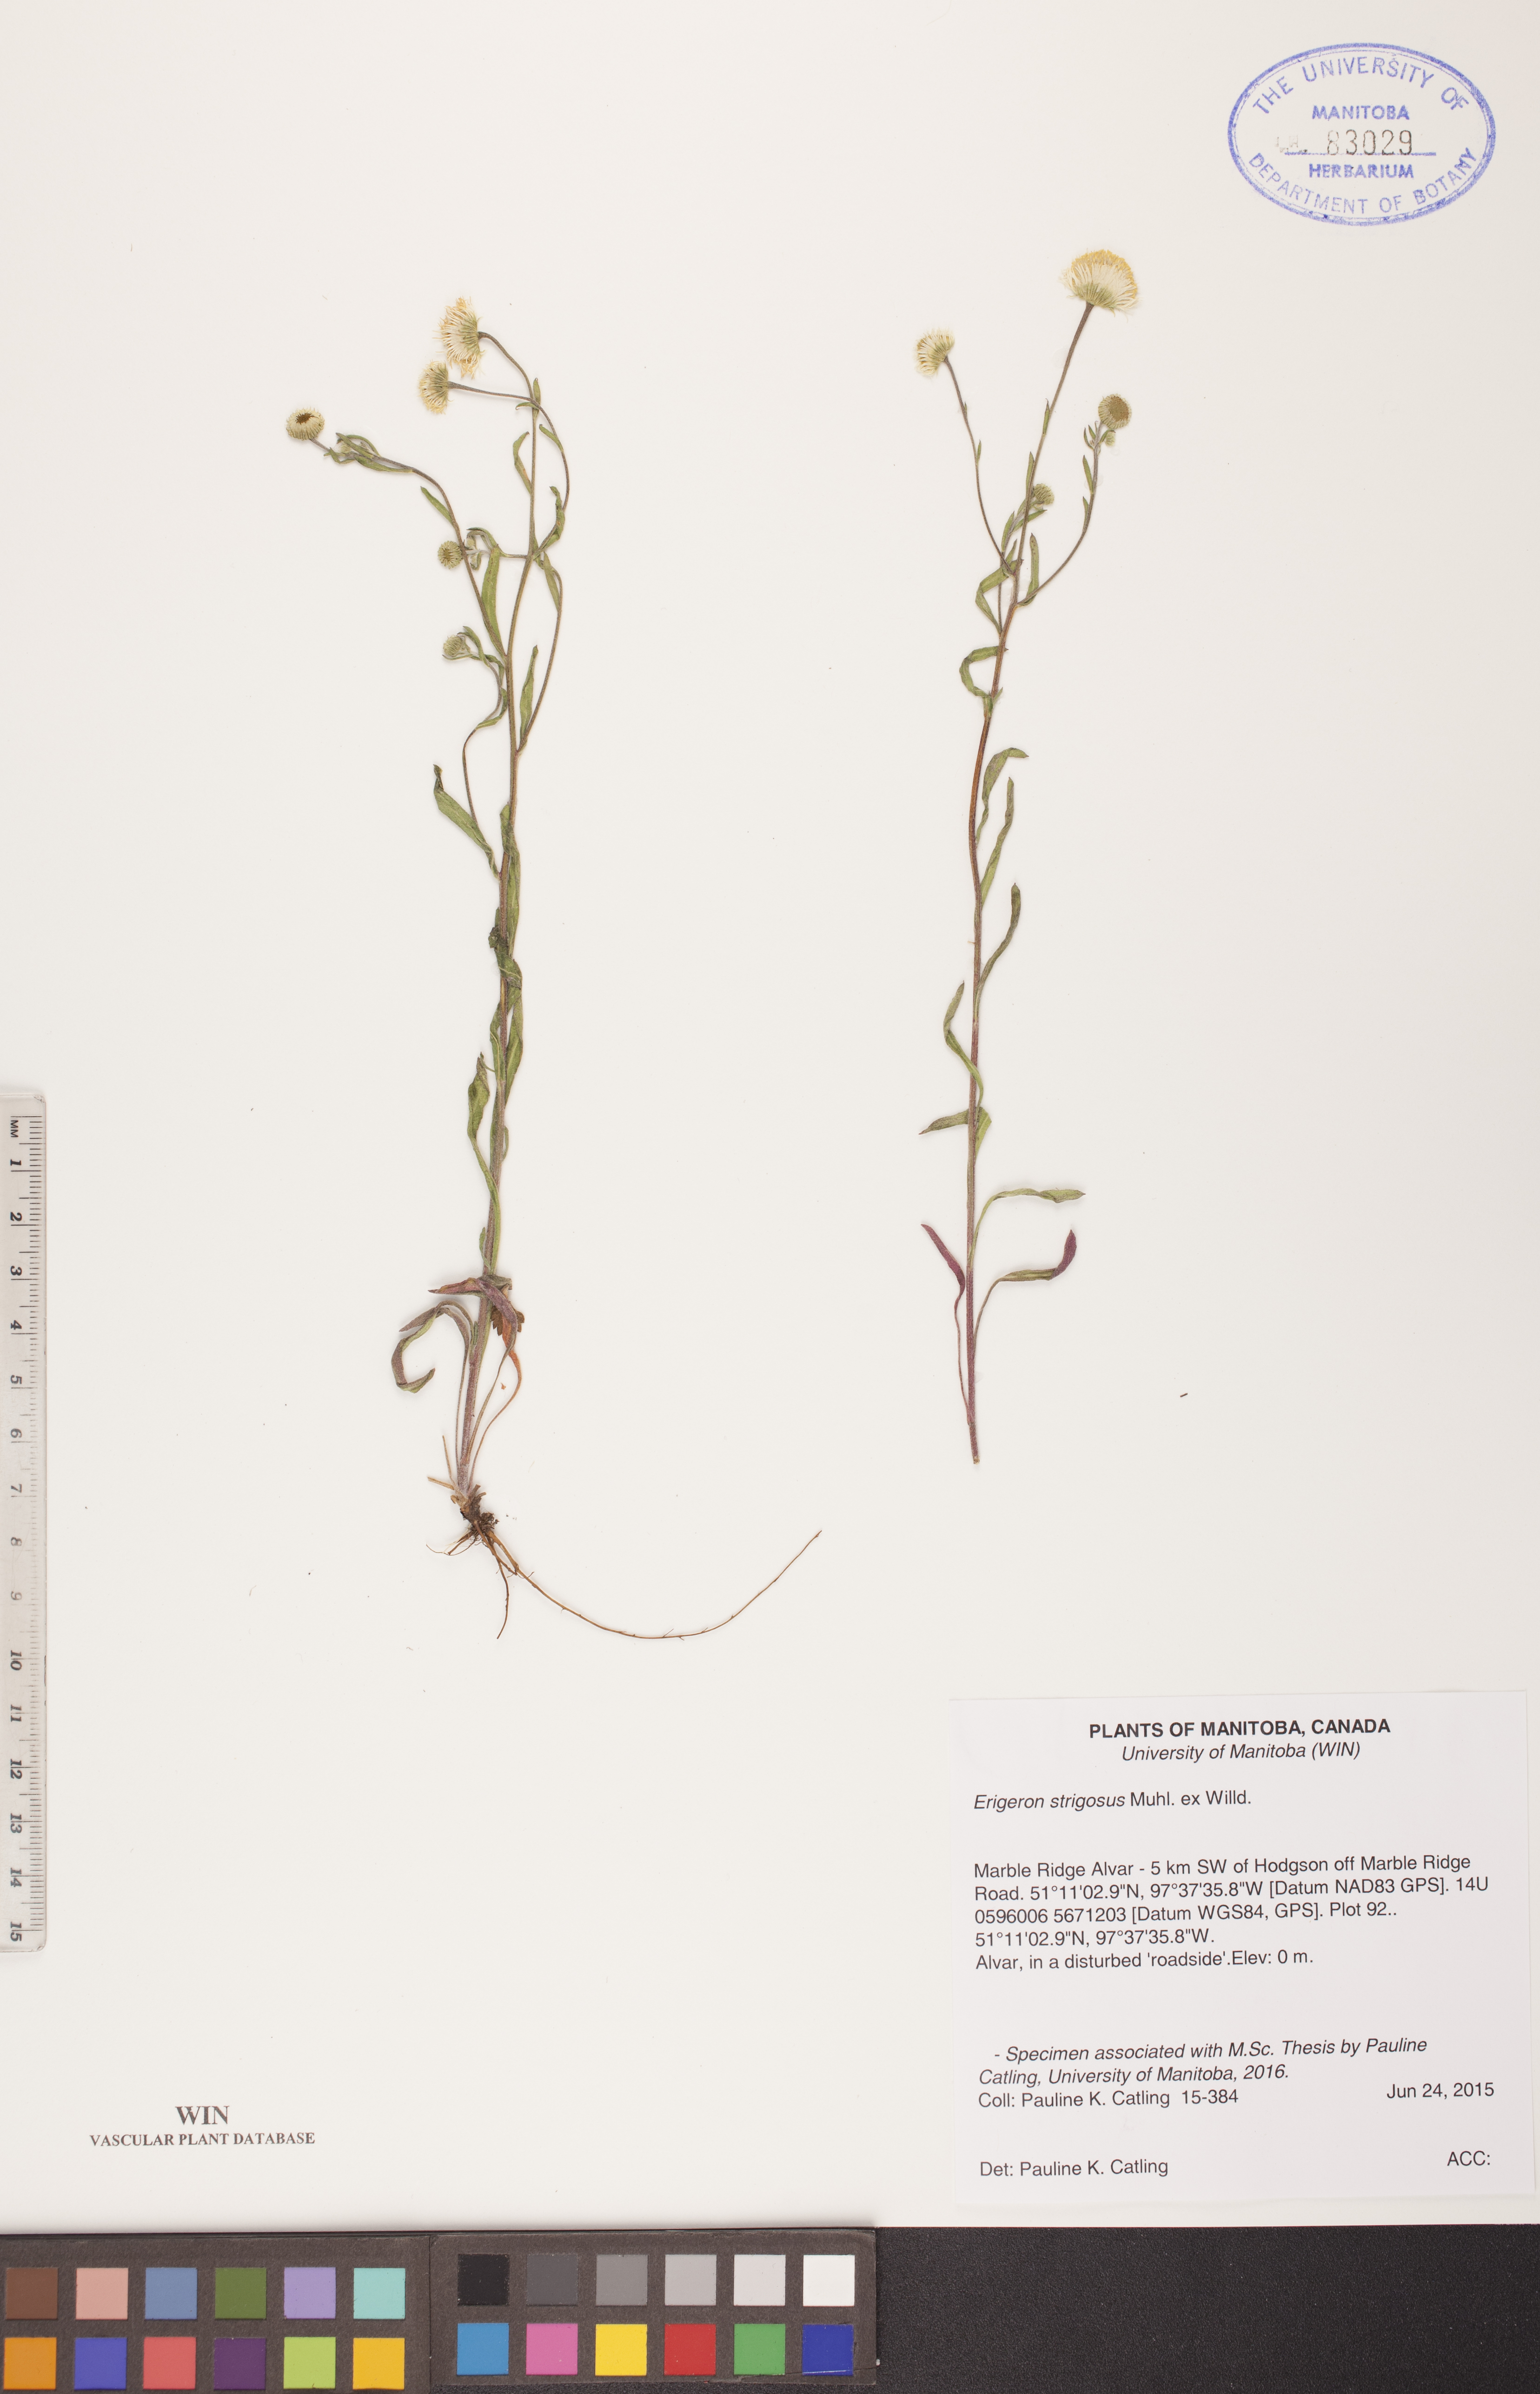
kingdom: Plantae
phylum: Tracheophyta
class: Magnoliopsida
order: Asterales
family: Asteraceae
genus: Erigeron
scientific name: Erigeron strigosus
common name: Common eastern fleabane
